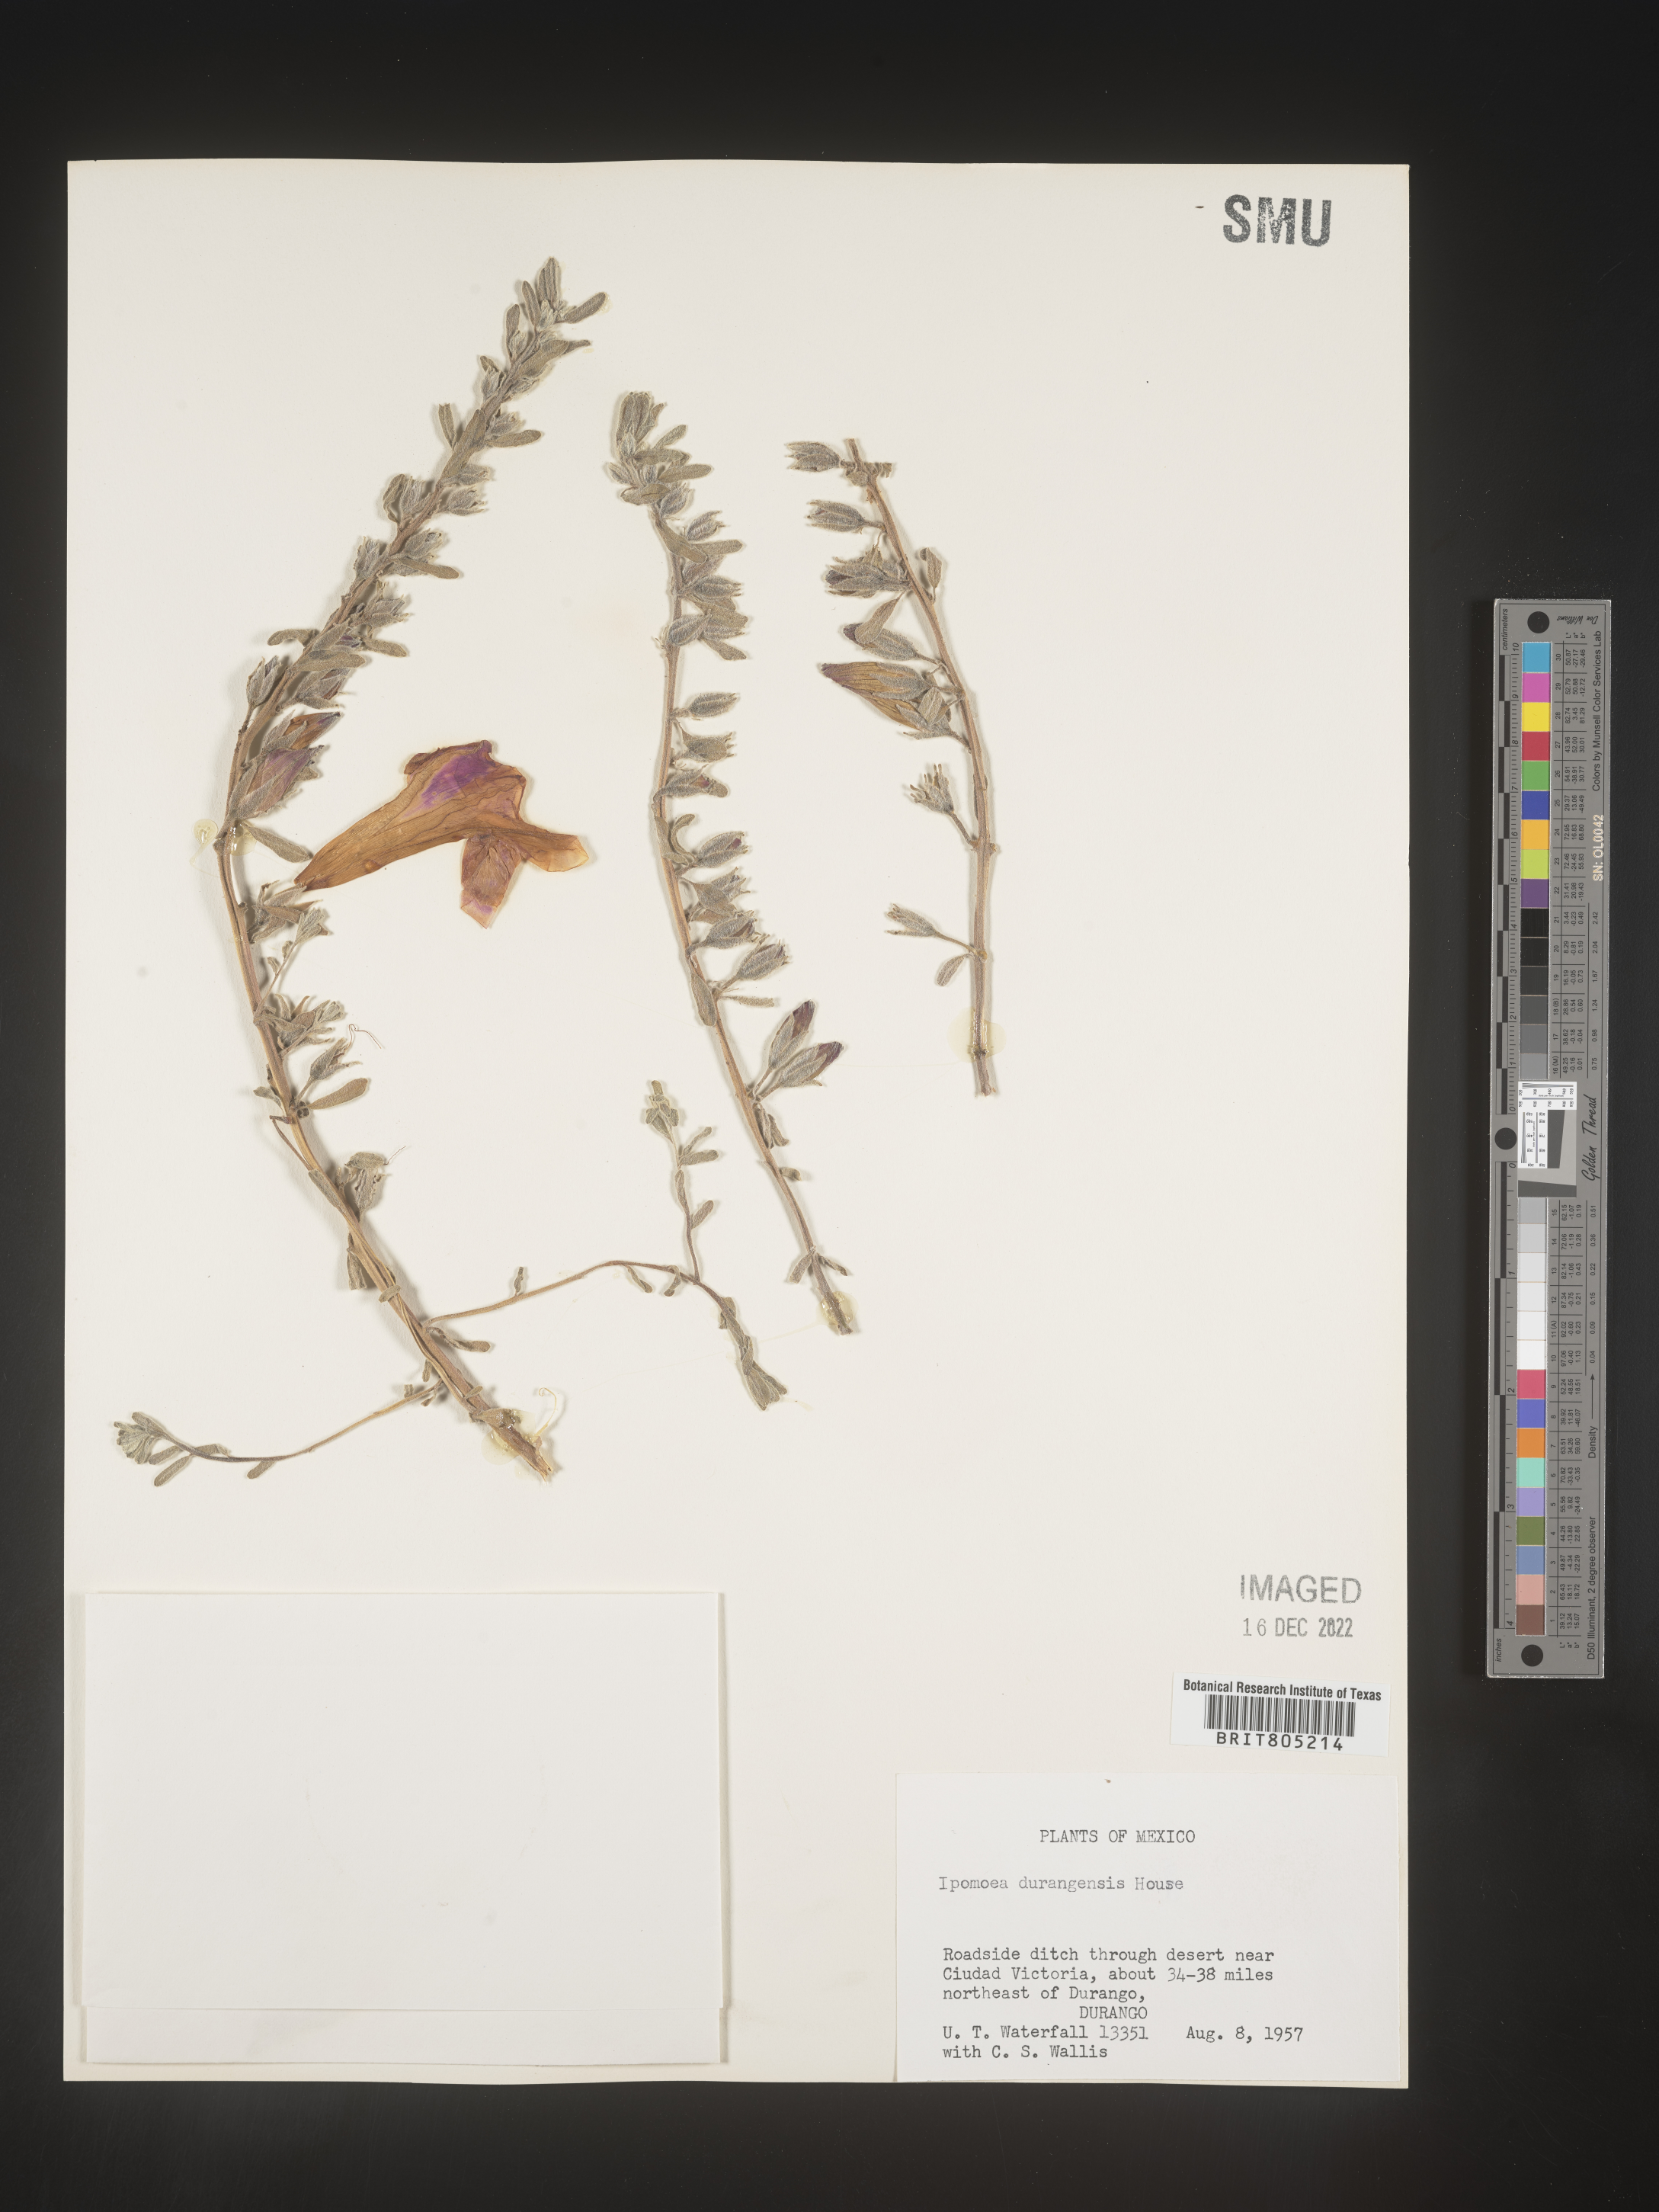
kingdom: Plantae
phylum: Tracheophyta
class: Magnoliopsida
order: Solanales
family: Convolvulaceae
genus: Ipomoea
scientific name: Ipomoea
